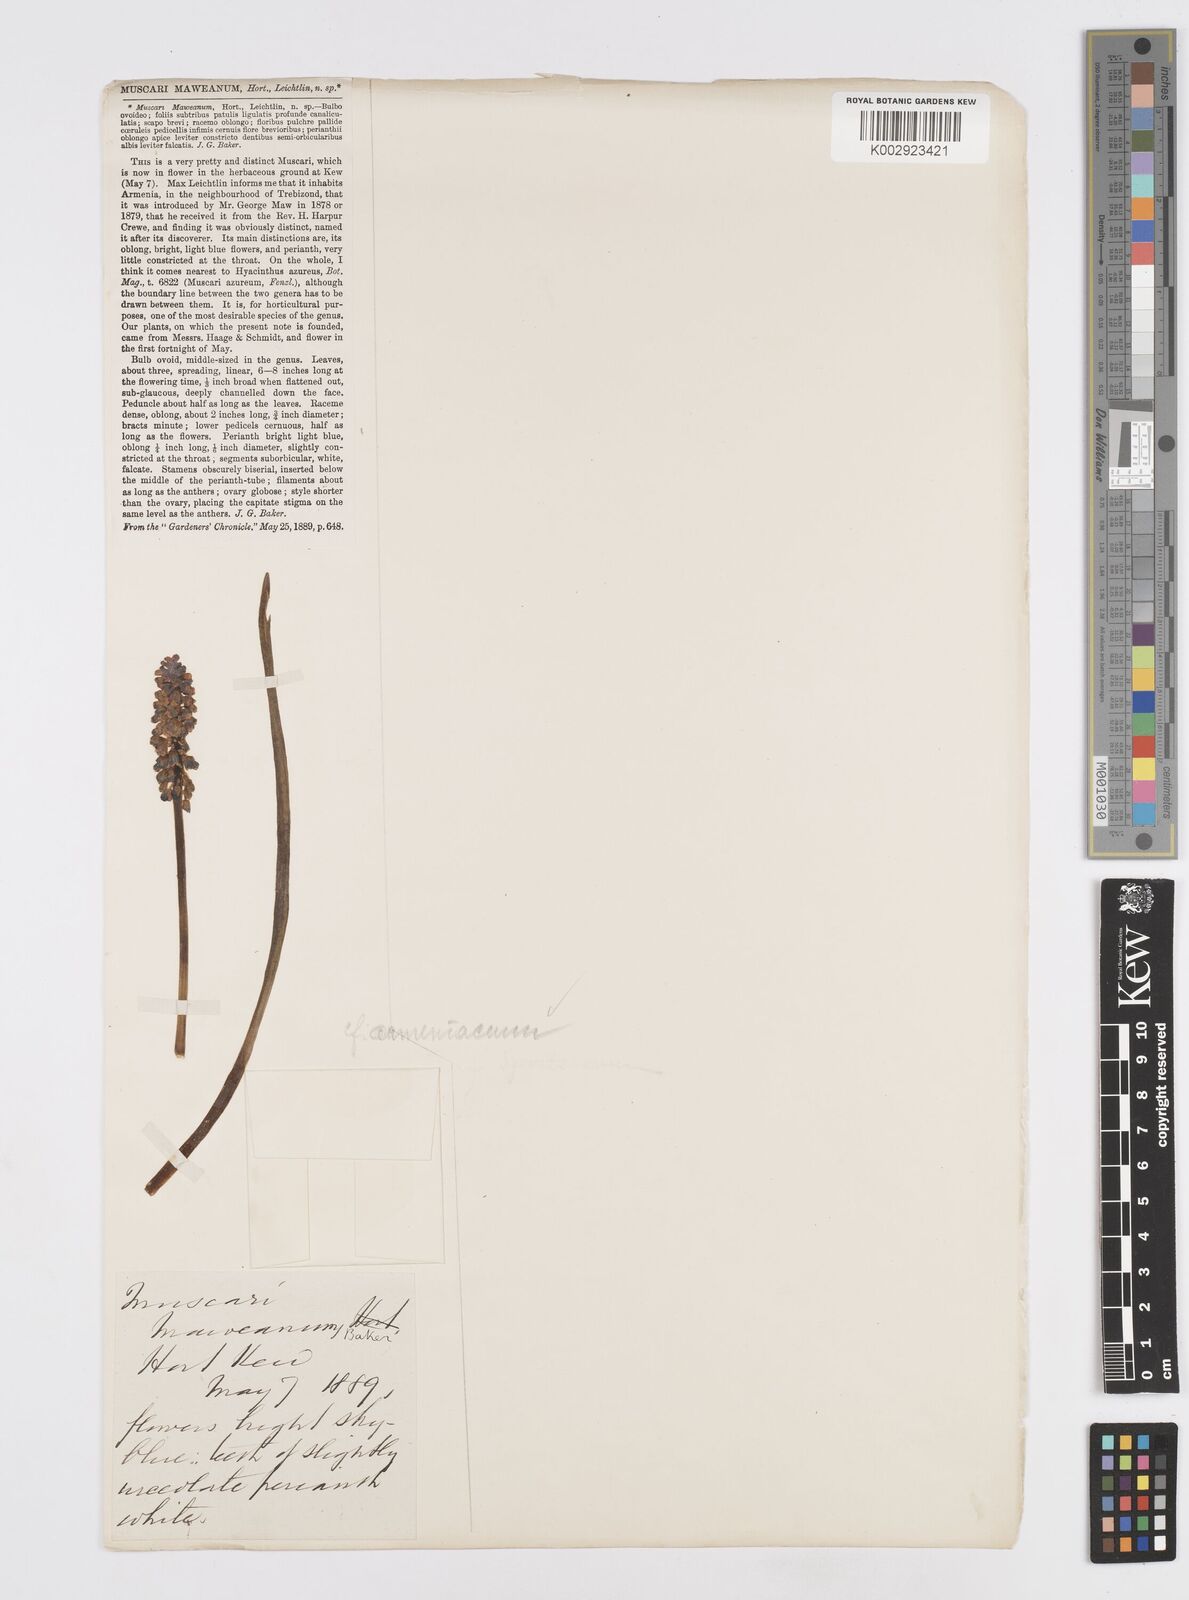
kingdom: Plantae
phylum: Tracheophyta
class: Liliopsida
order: Asparagales
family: Asparagaceae
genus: Muscari
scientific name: Muscari
